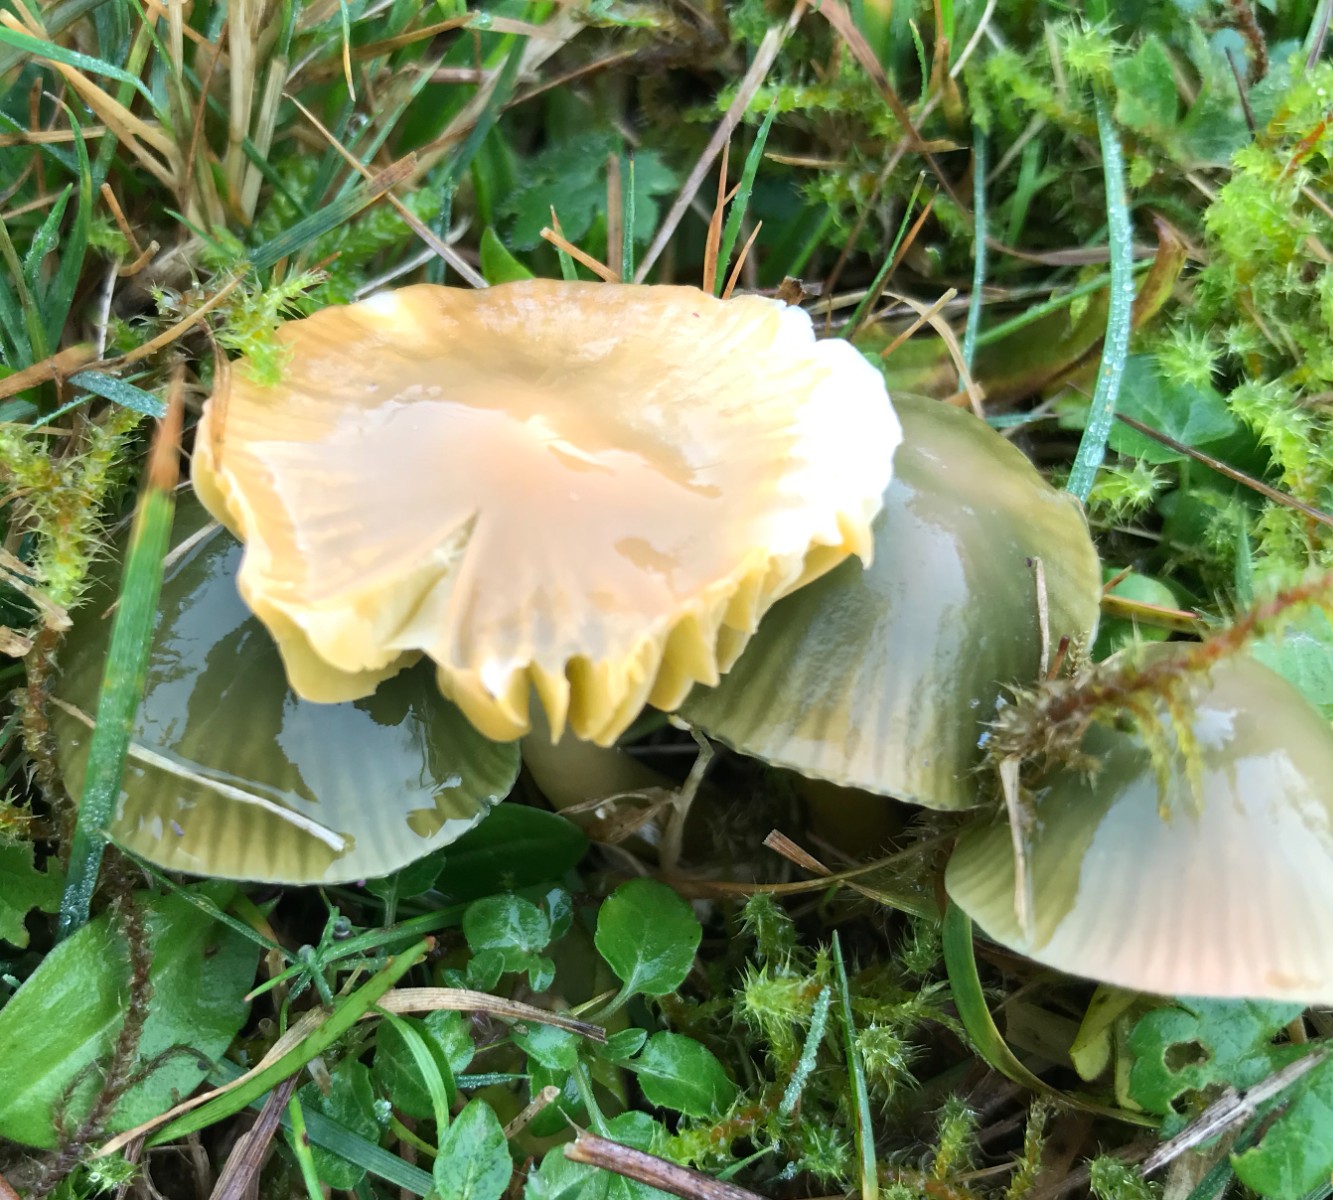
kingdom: Fungi
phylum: Basidiomycota
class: Agaricomycetes
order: Agaricales
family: Hygrophoraceae
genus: Gliophorus
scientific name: Gliophorus psittacinus
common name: papegøje-vokshat
